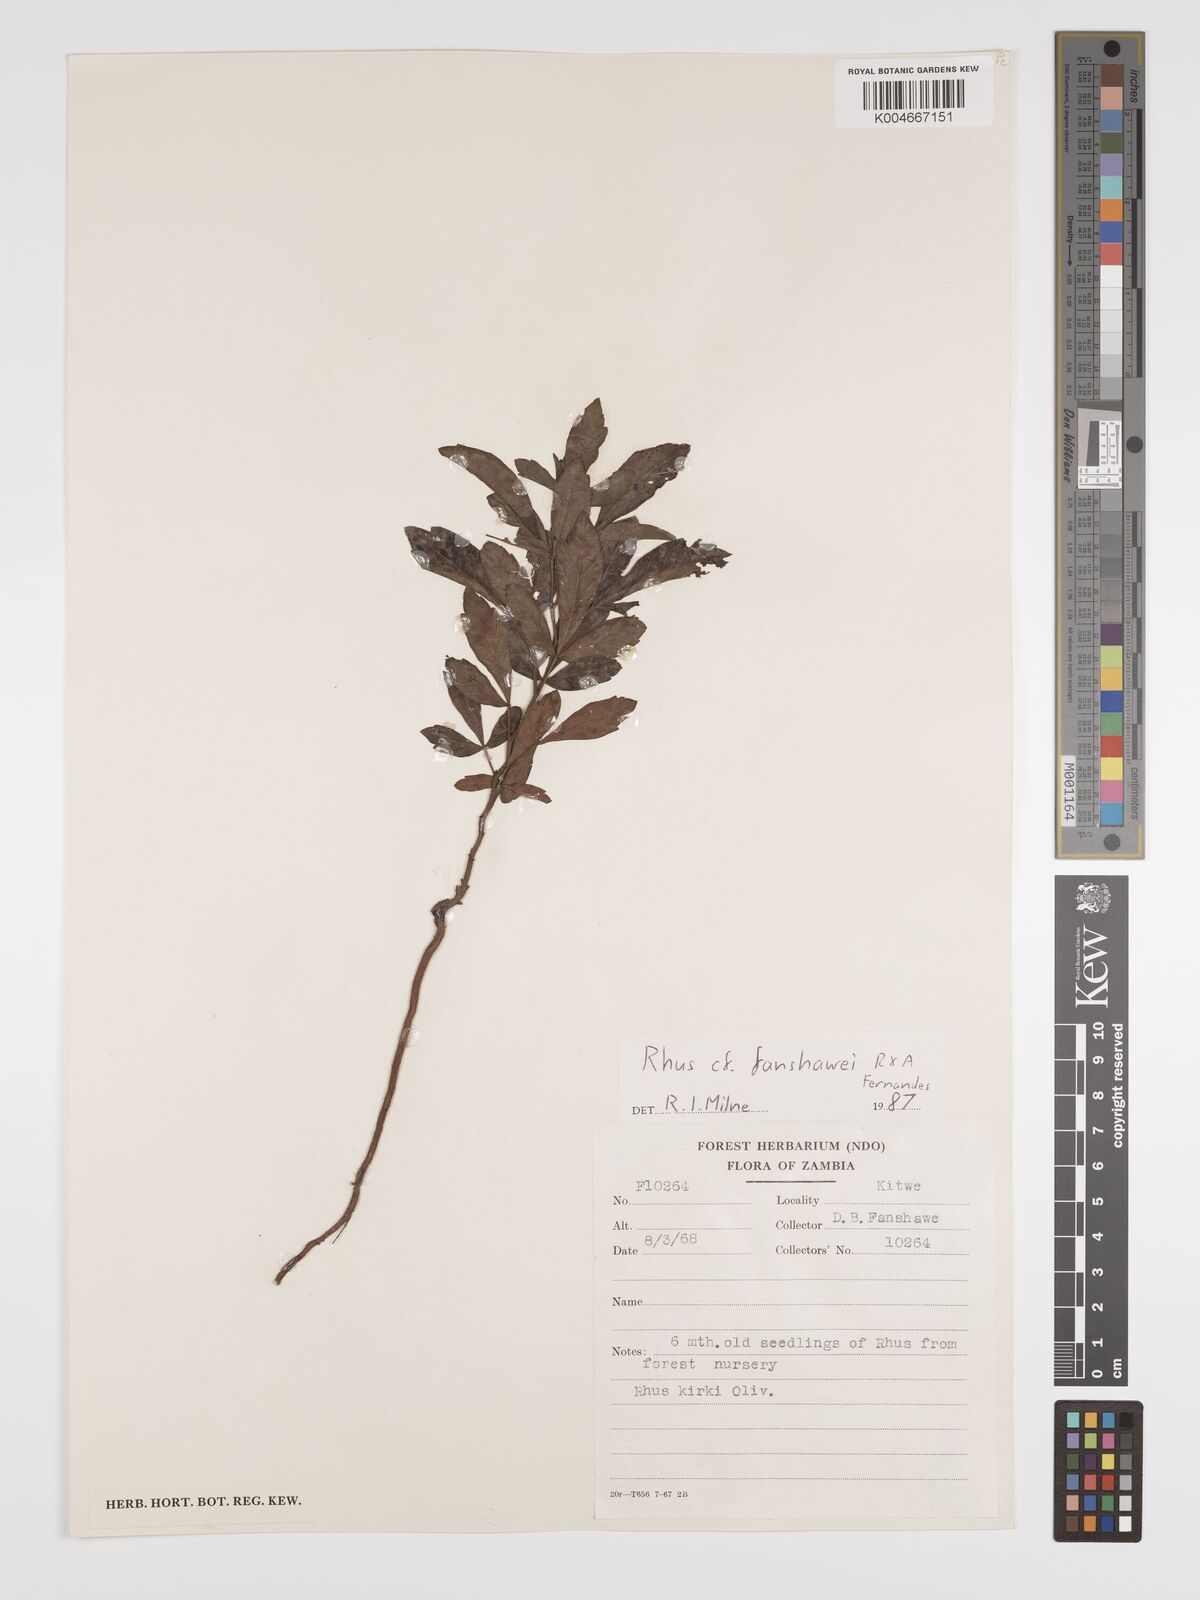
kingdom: Plantae
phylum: Tracheophyta
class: Magnoliopsida
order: Sapindales
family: Anacardiaceae
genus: Searsia
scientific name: Searsia magalismontana
